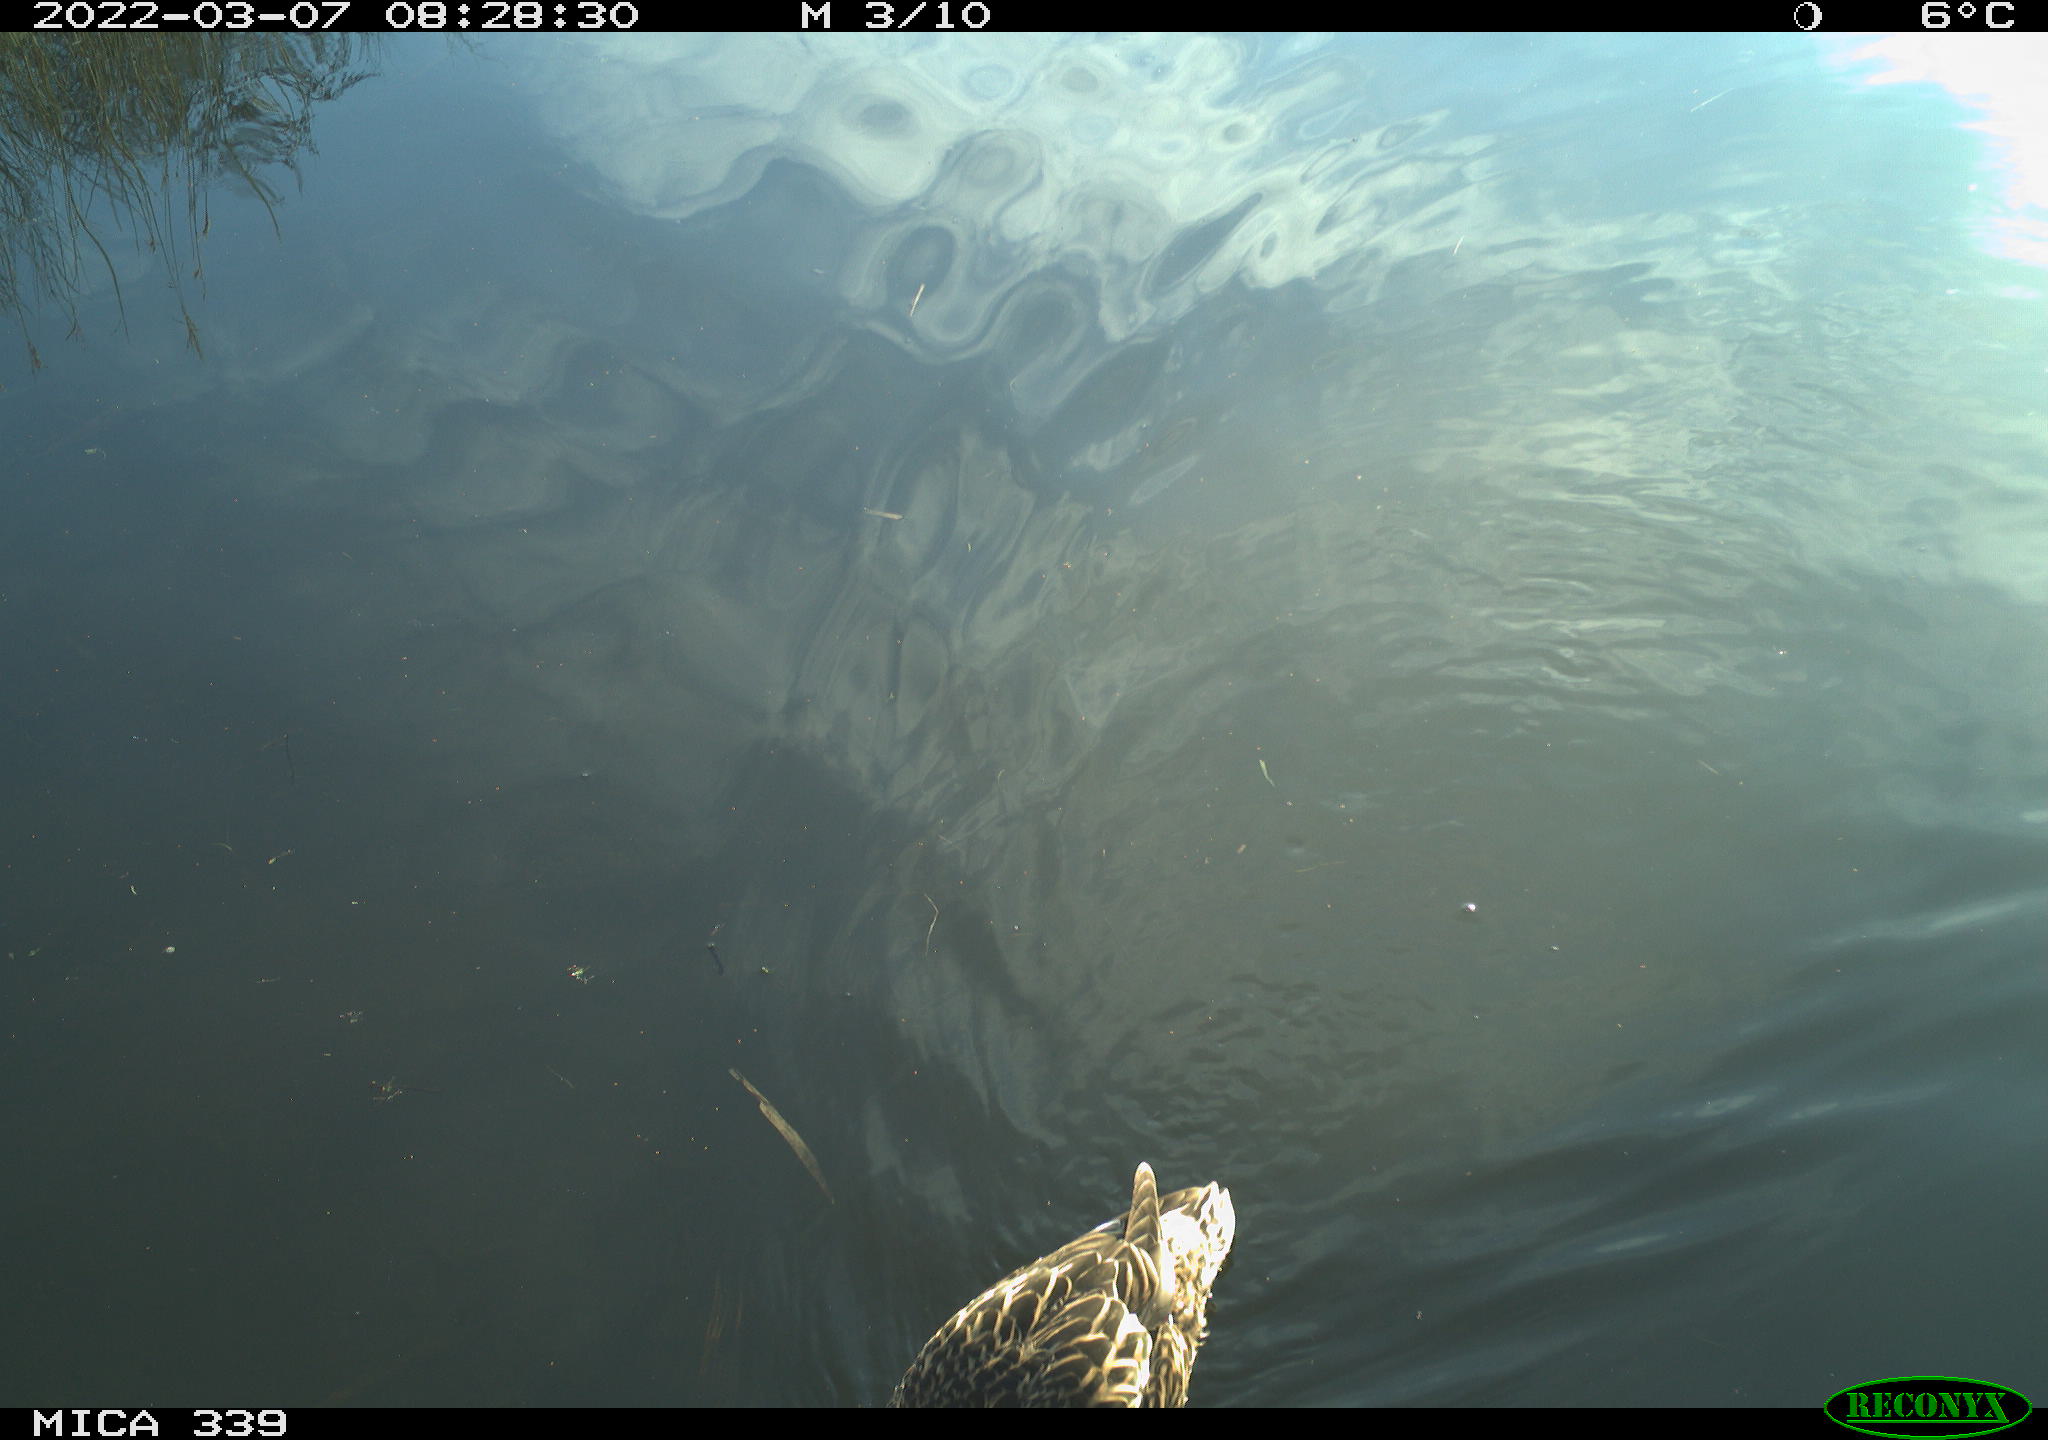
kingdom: Animalia
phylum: Chordata
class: Aves
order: Suliformes
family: Phalacrocoracidae
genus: Phalacrocorax
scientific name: Phalacrocorax carbo
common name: Great cormorant
